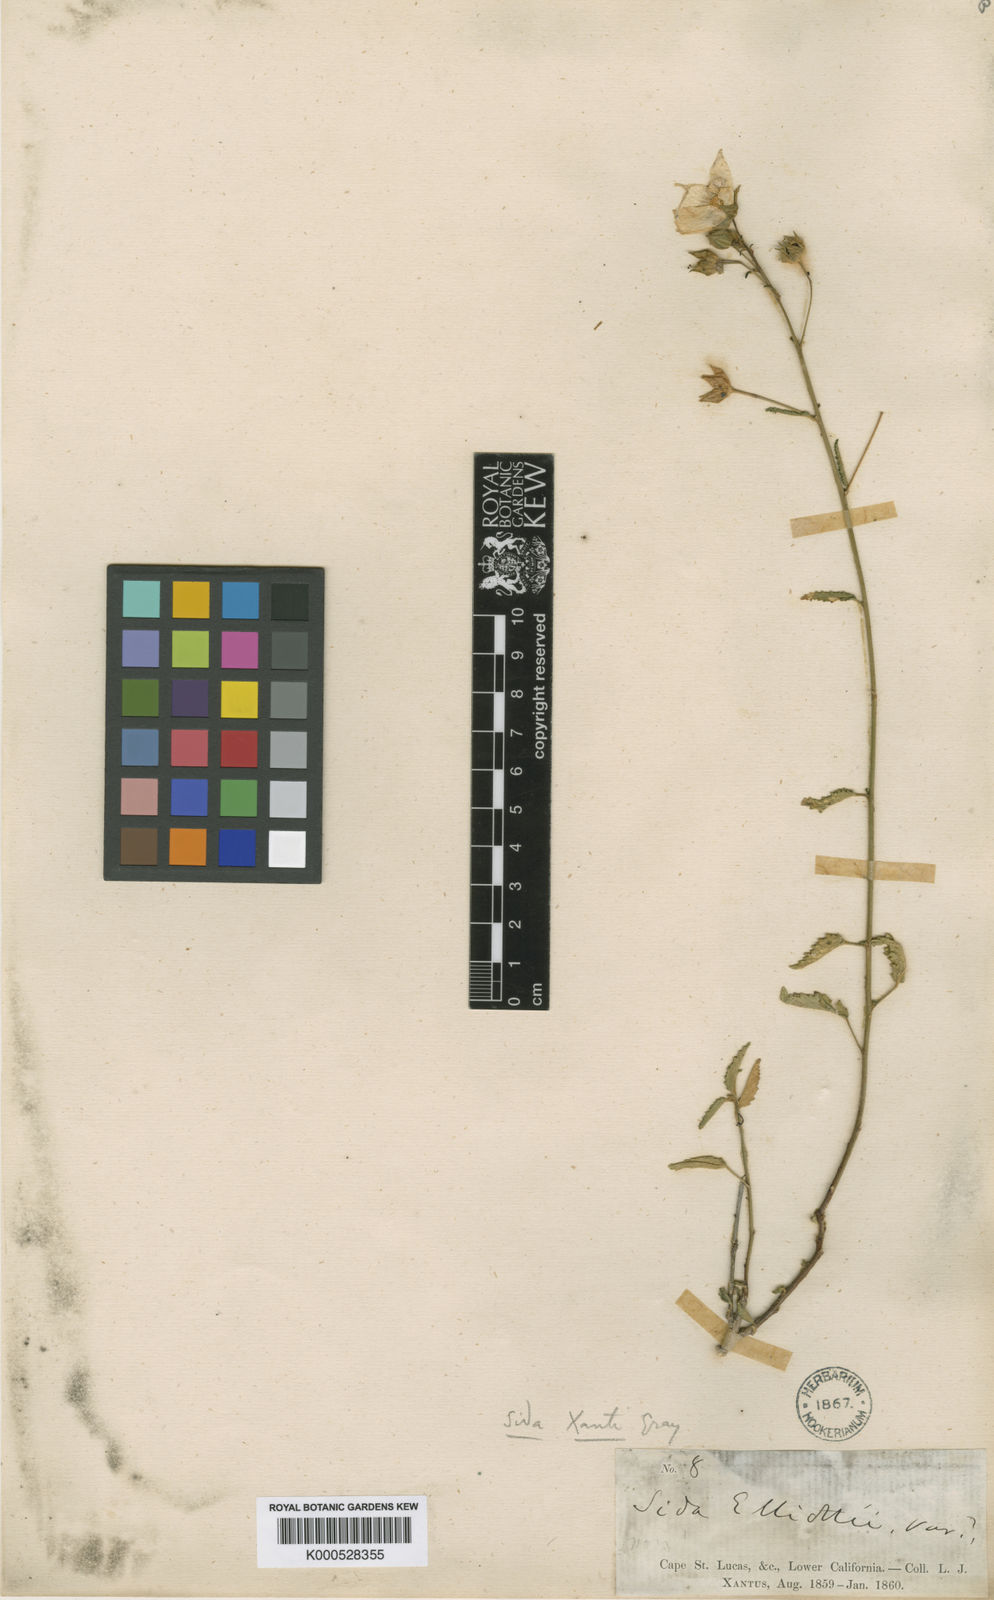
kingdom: Plantae
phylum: Tracheophyta
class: Magnoliopsida
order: Malvales
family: Malvaceae
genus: Sida
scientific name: Sida xanti
